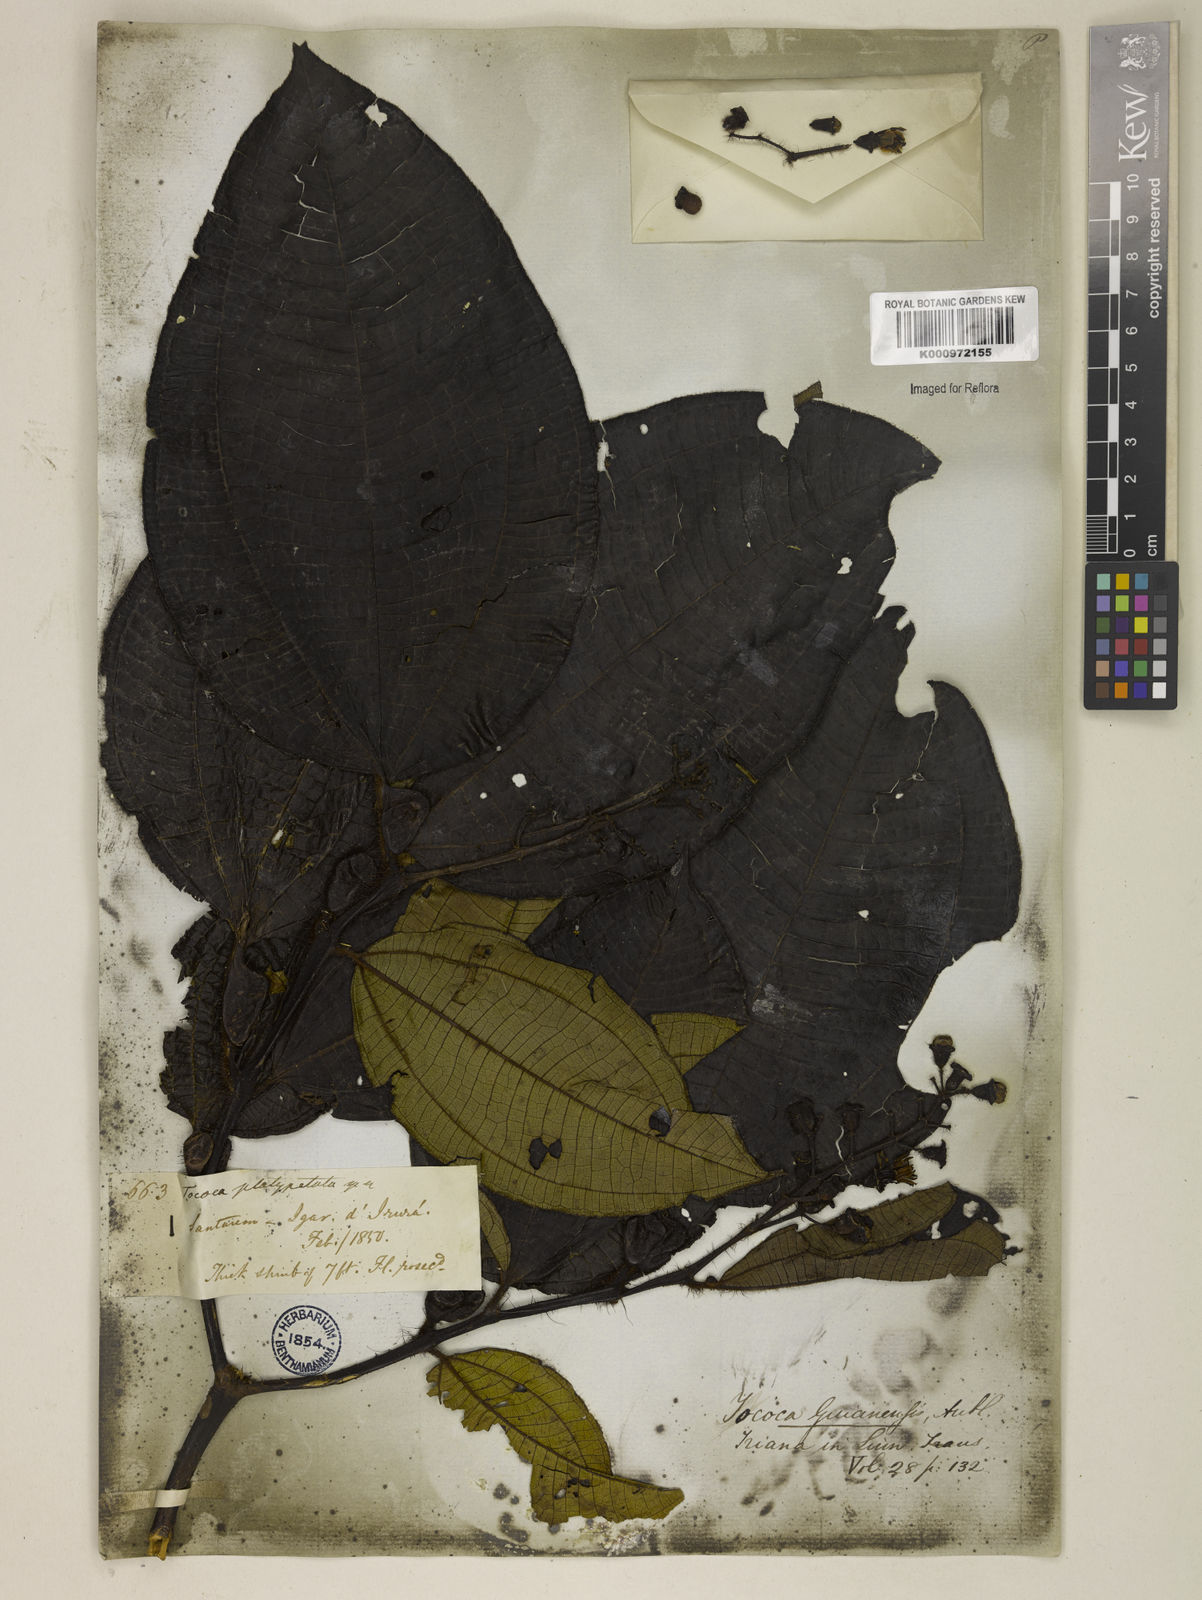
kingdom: Plantae
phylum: Tracheophyta
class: Magnoliopsida
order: Myrtales
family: Melastomataceae
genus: Miconia
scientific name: Miconia tococa
